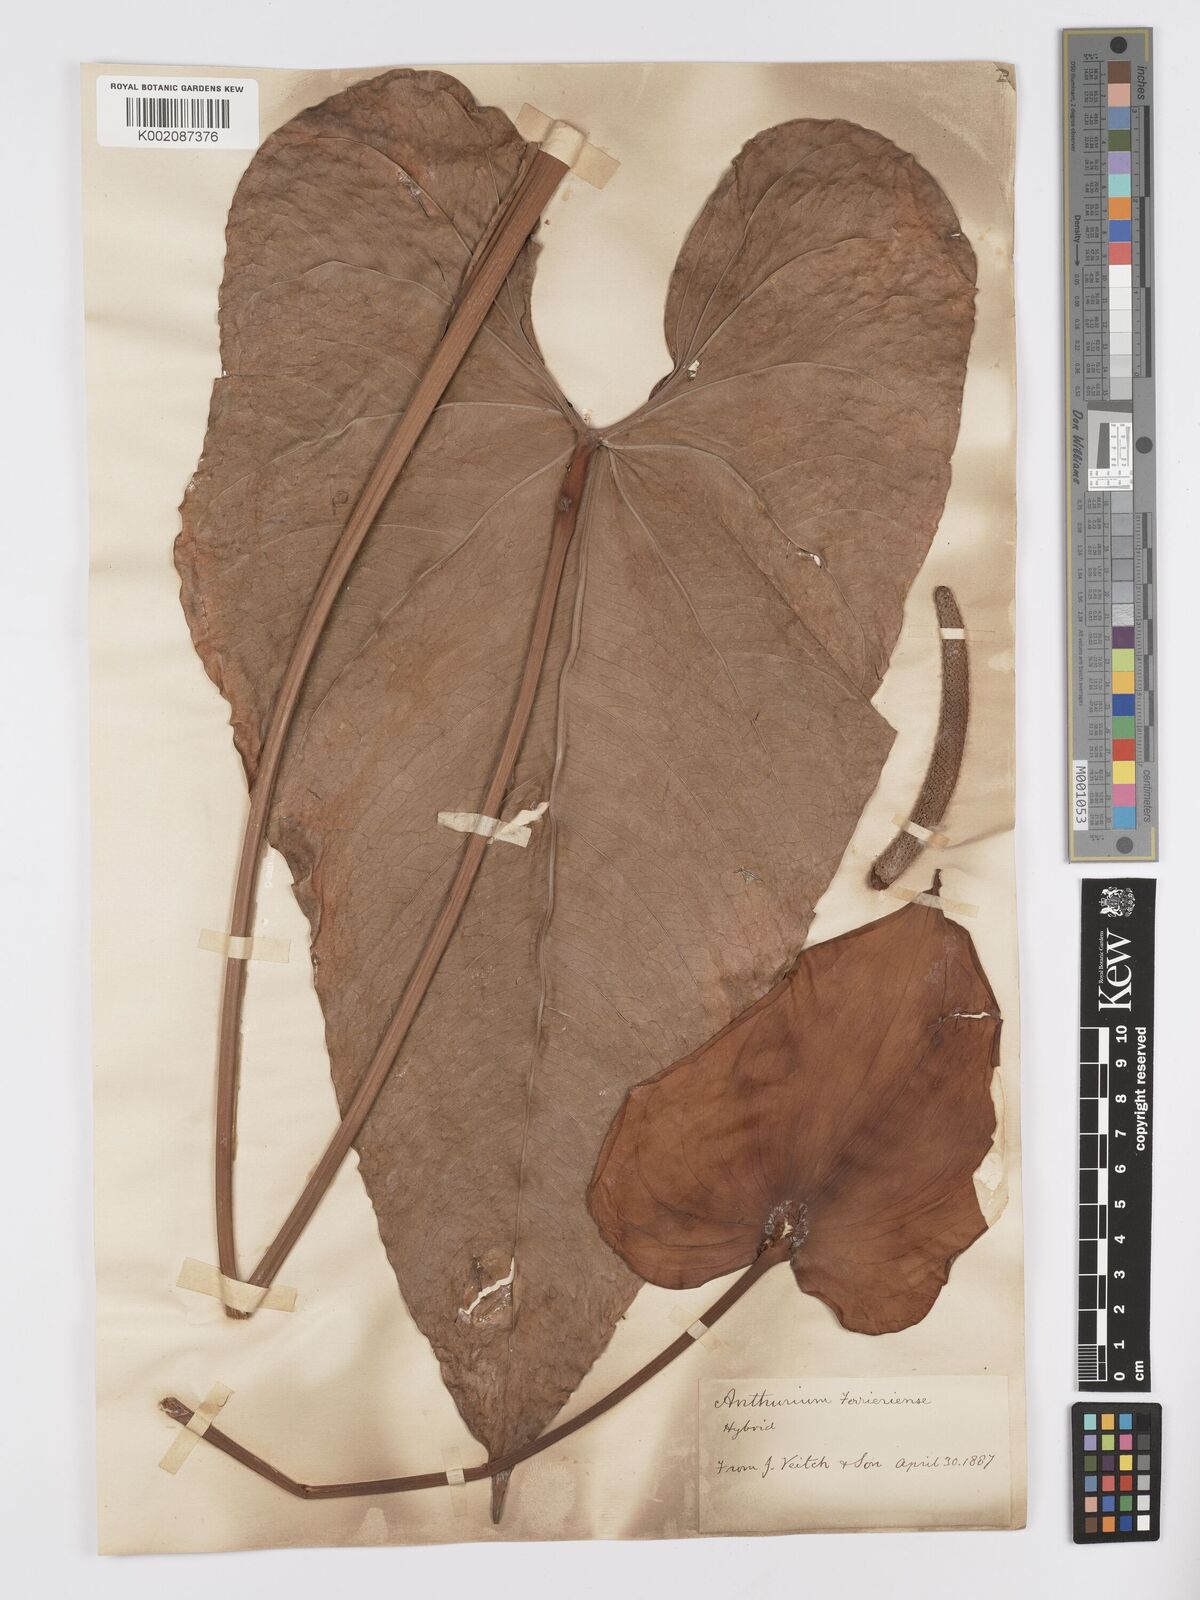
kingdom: Plantae
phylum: Tracheophyta
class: Liliopsida
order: Alismatales
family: Araceae
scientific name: Araceae
